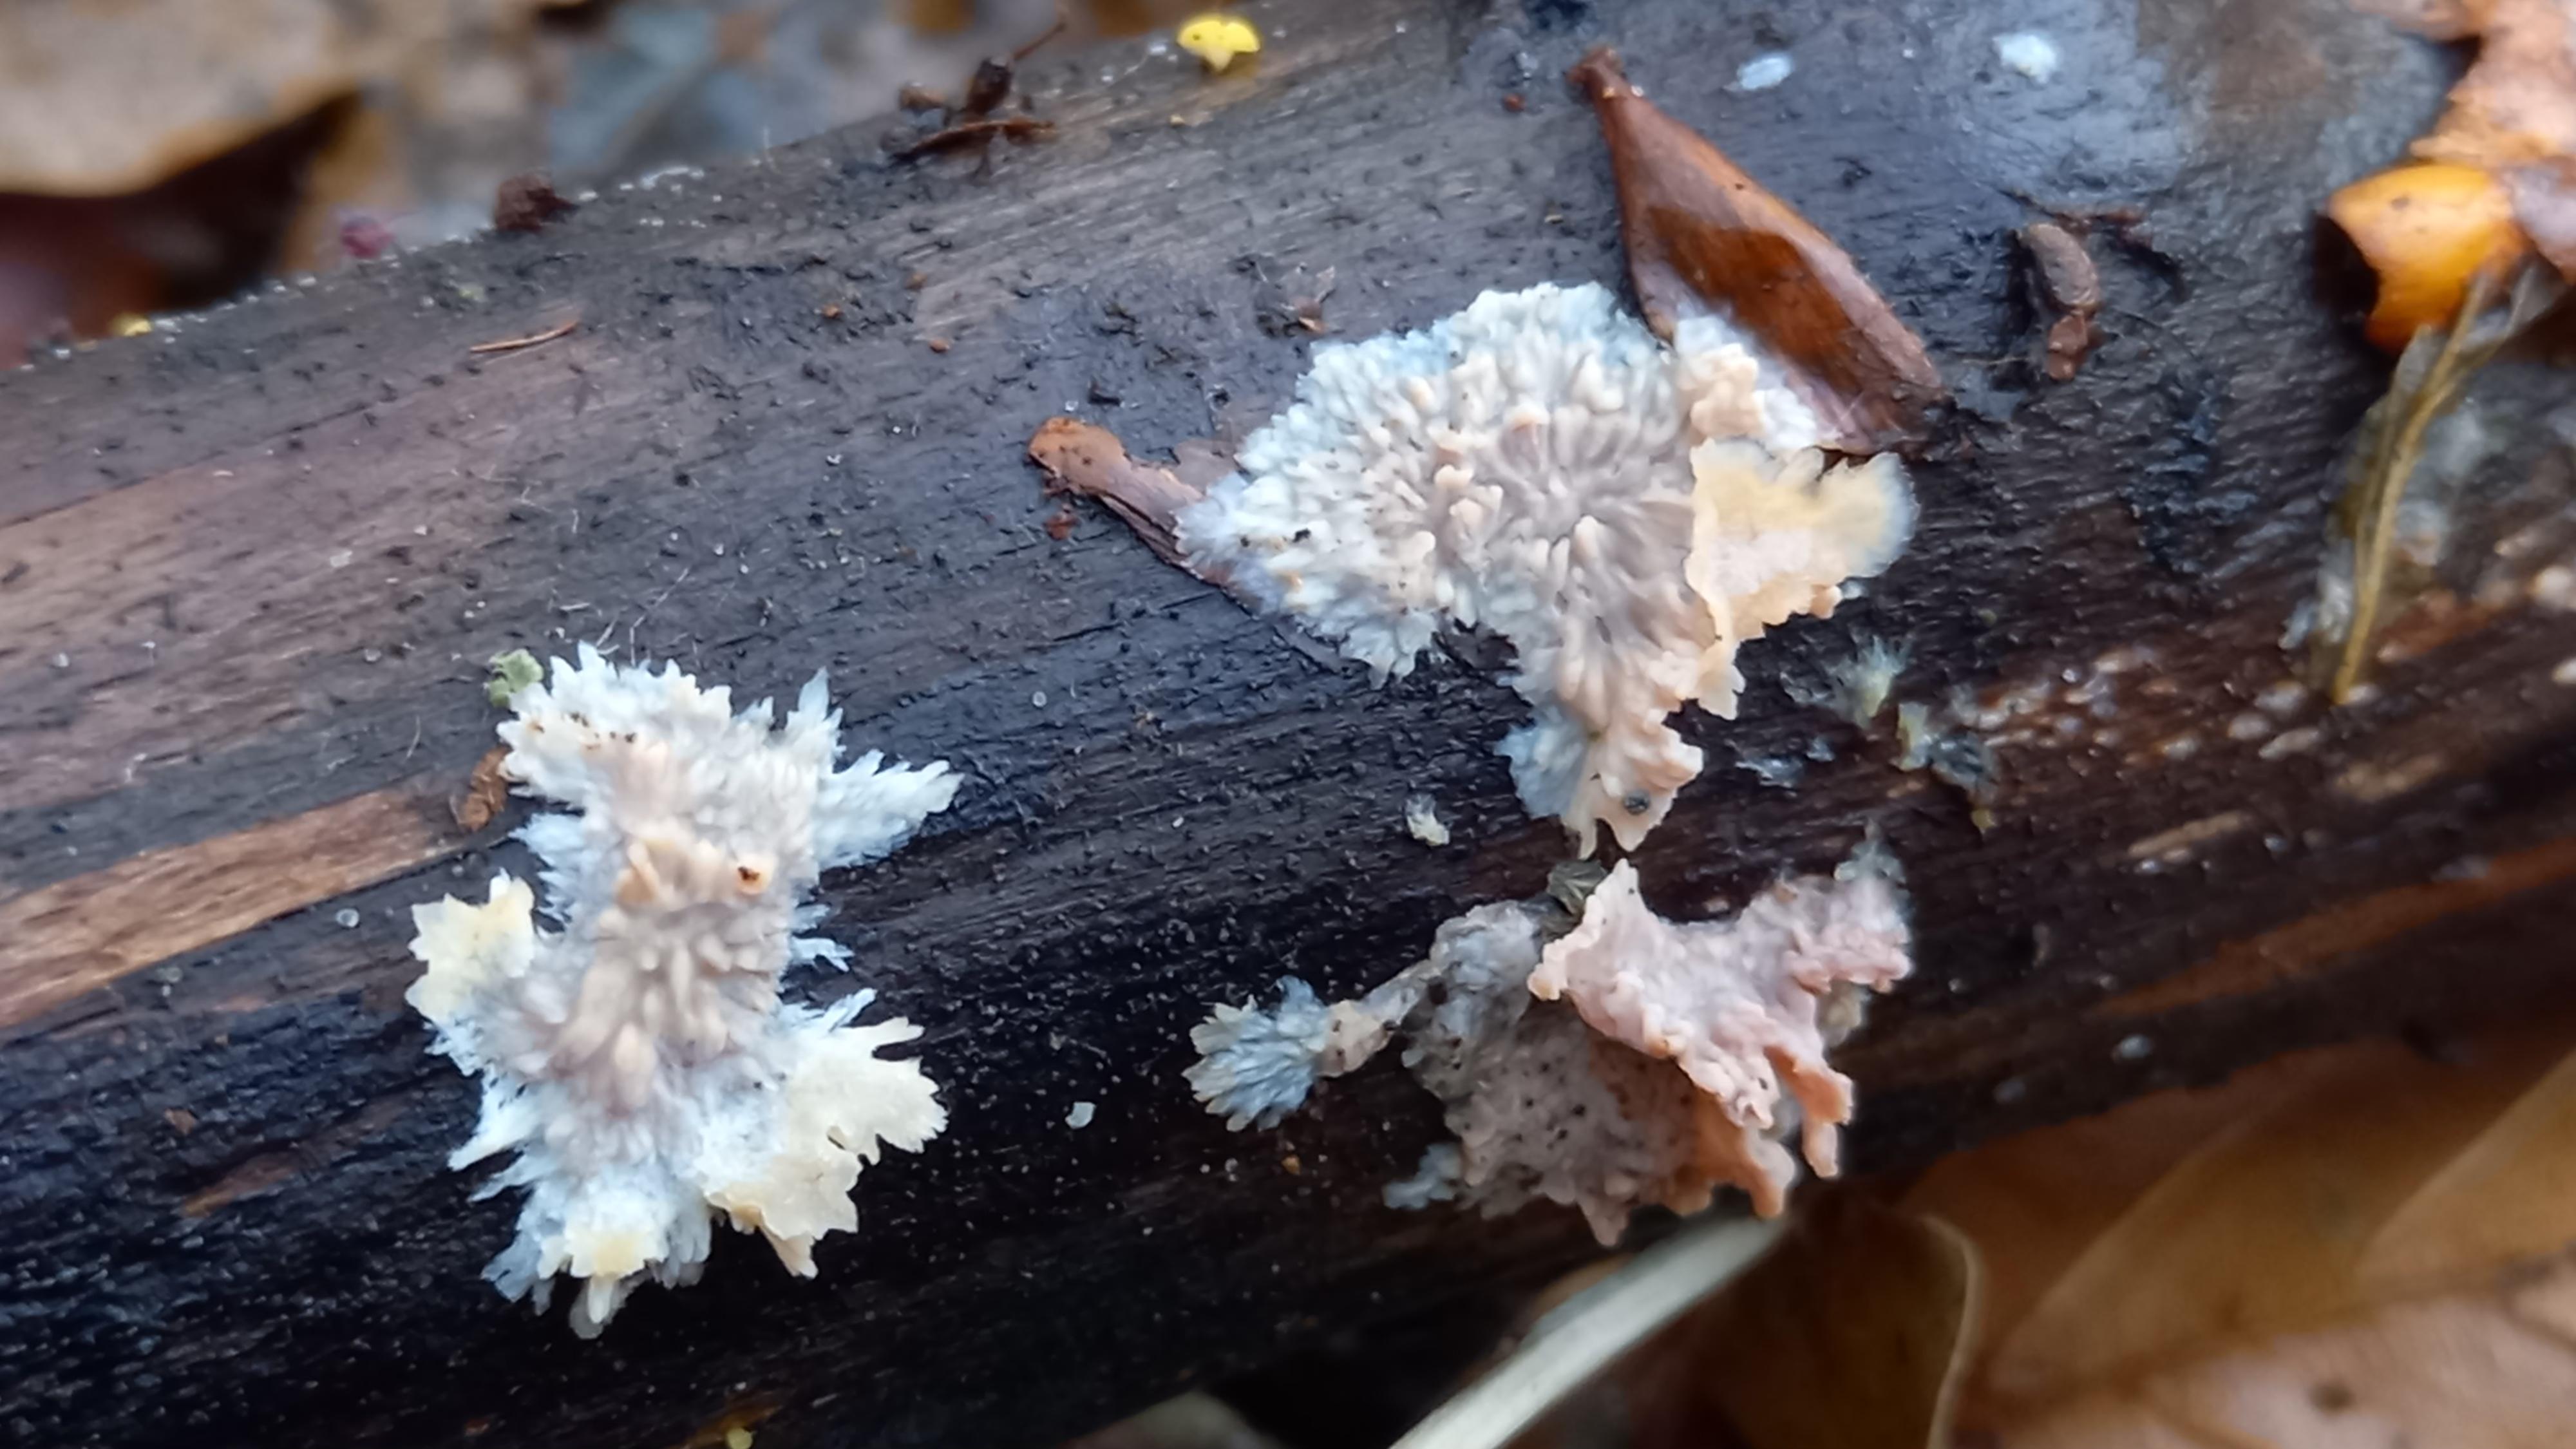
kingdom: Fungi
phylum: Basidiomycota
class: Agaricomycetes
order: Polyporales
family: Meruliaceae
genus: Phlebia
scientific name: Phlebia radiata
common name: stråle-åresvamp
